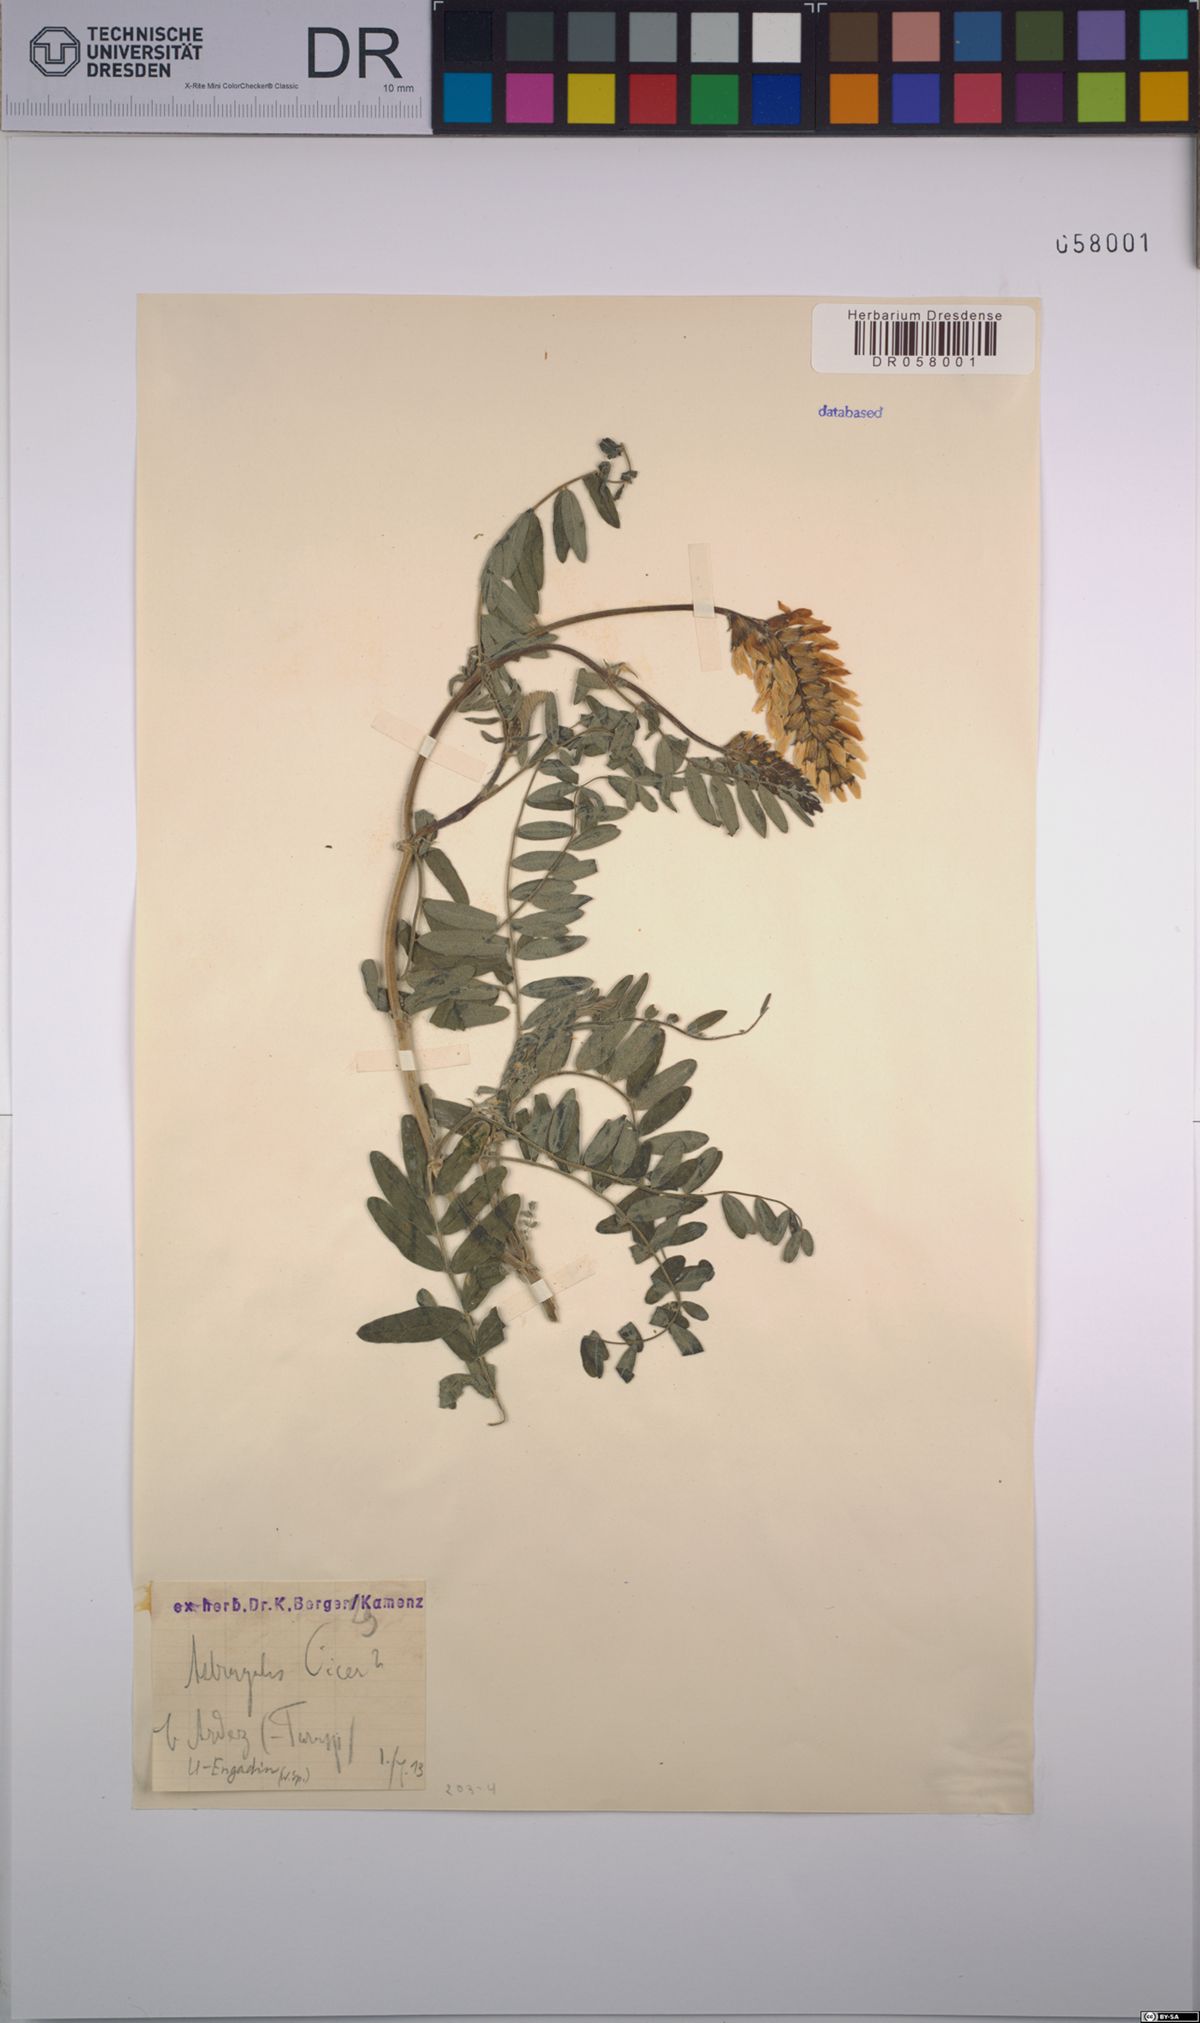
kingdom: Plantae
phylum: Tracheophyta
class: Magnoliopsida
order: Fabales
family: Fabaceae
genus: Astragalus
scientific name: Astragalus cicer
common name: Chick-pea milk-vetch
